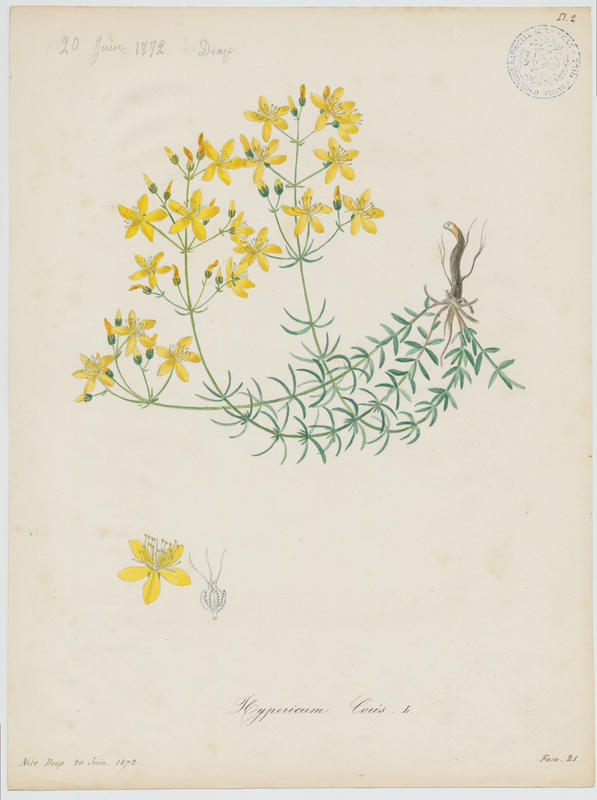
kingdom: Plantae
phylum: Tracheophyta
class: Magnoliopsida
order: Malpighiales
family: Hypericaceae
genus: Hypericum
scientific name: Hypericum coris
